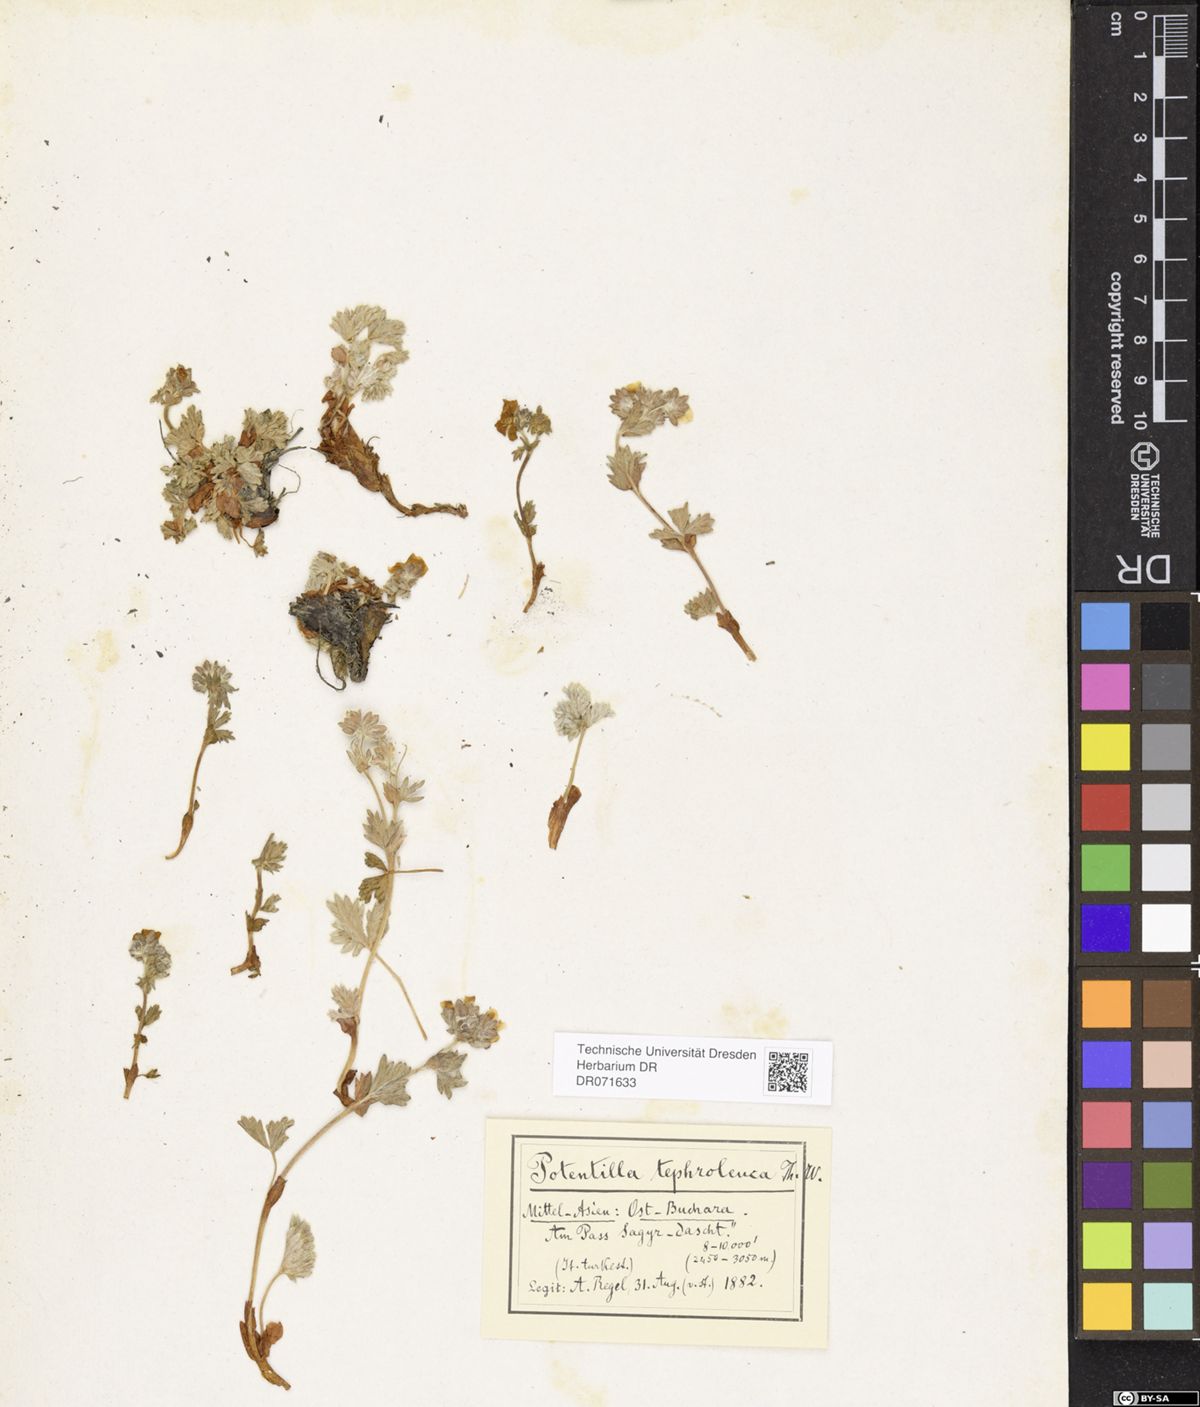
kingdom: Plantae
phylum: Tracheophyta
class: Magnoliopsida
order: Rosales
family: Rosaceae
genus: Potentilla
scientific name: Potentilla tephroleuca
